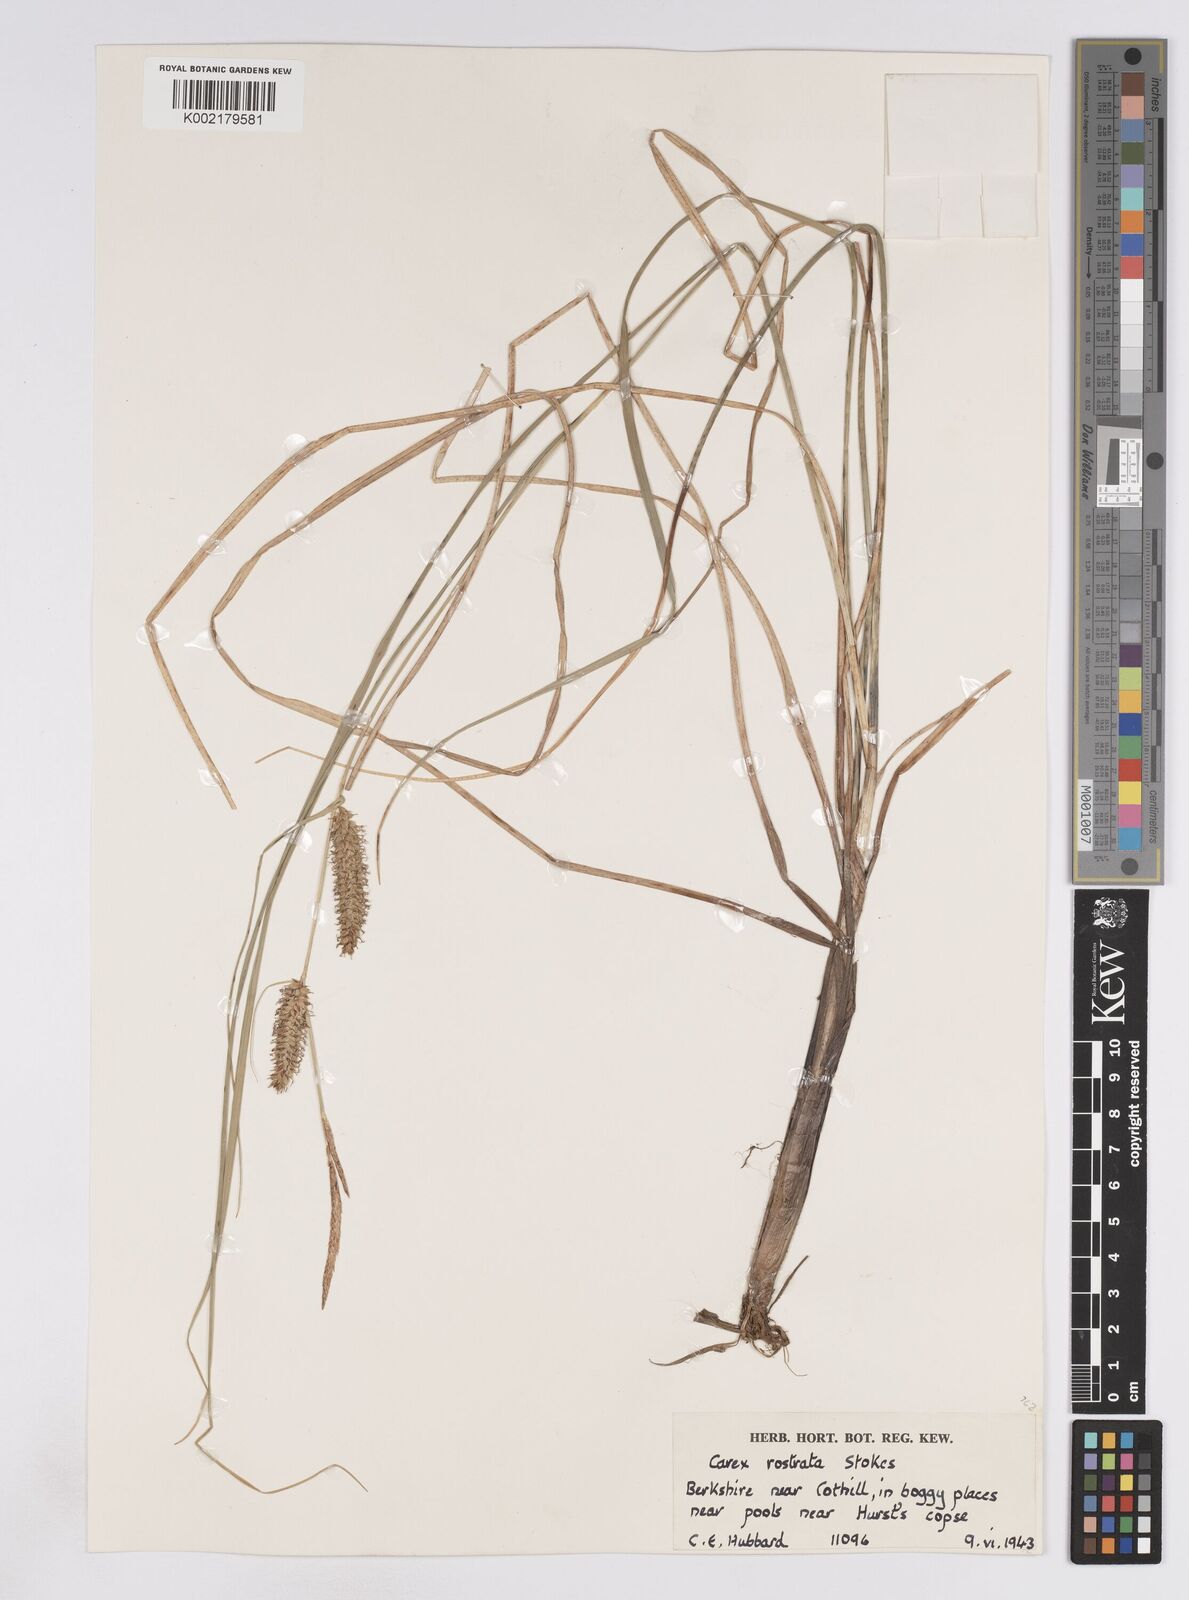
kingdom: Plantae
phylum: Tracheophyta
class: Liliopsida
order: Poales
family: Cyperaceae
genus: Carex
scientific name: Carex rostrata
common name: Bottle sedge
